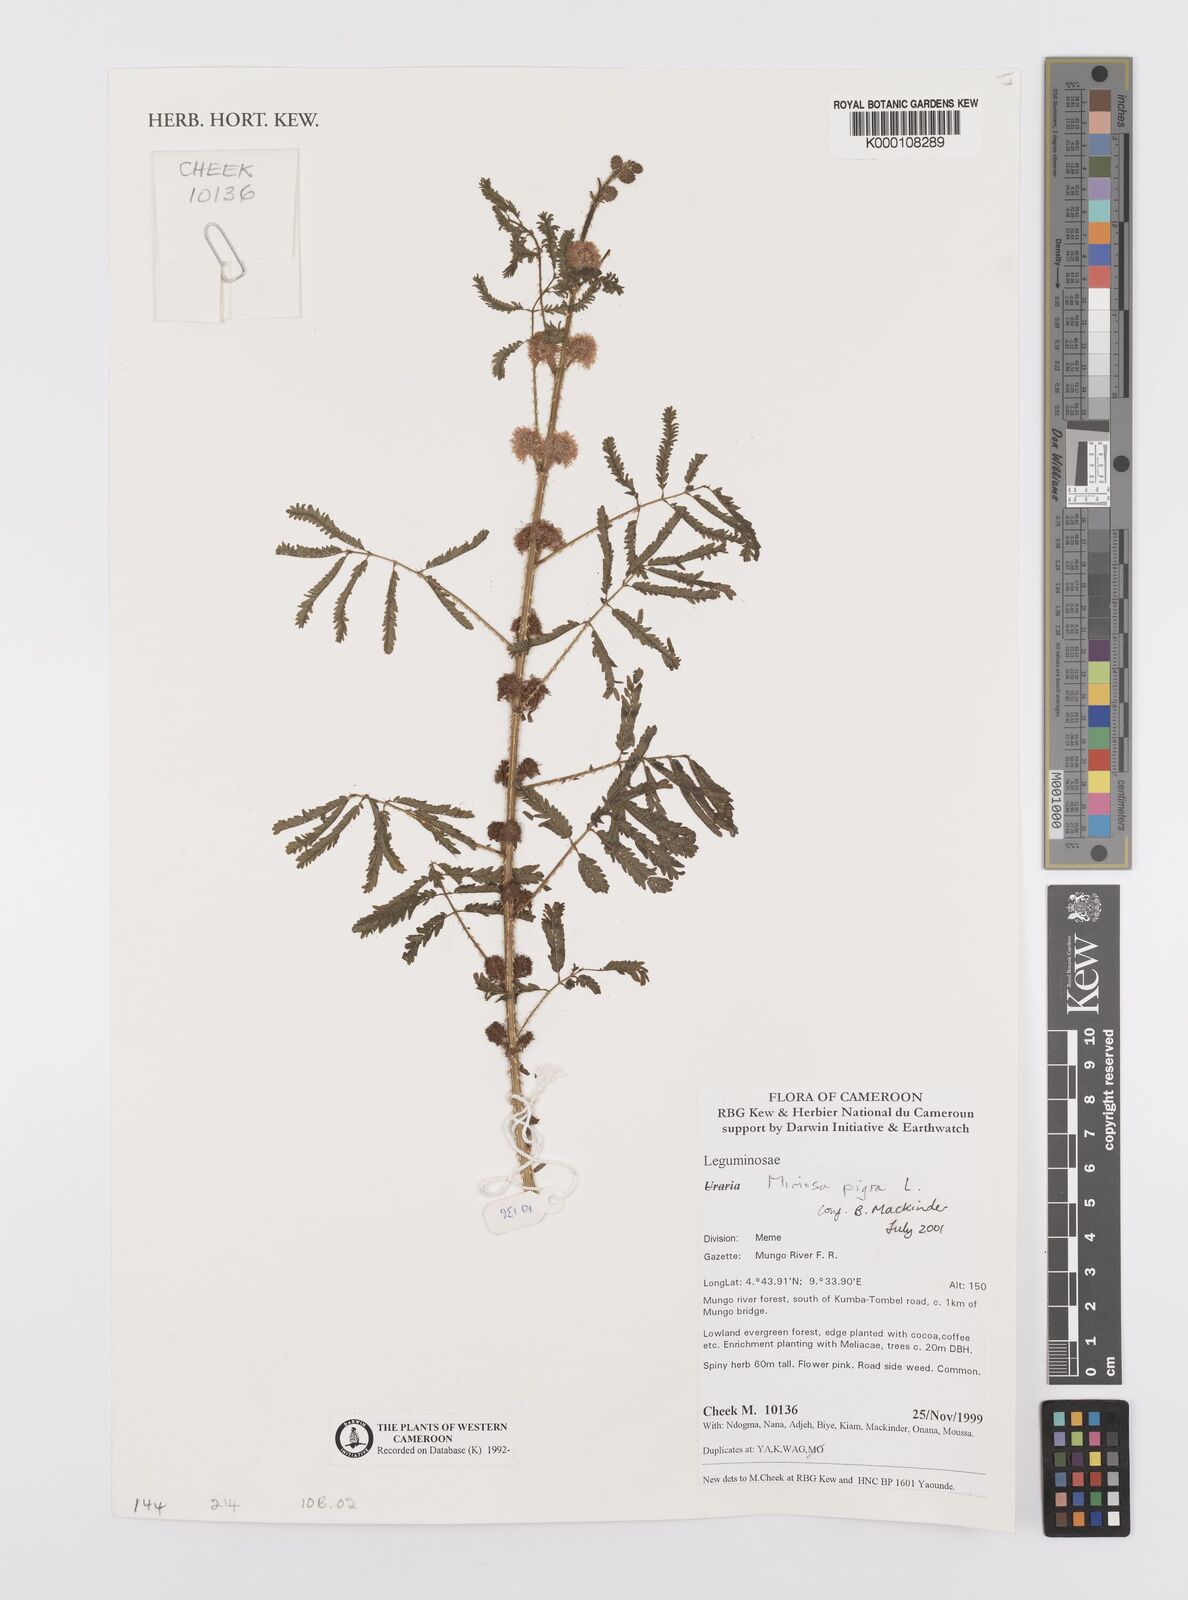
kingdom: Plantae
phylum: Tracheophyta
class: Magnoliopsida
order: Fabales
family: Fabaceae
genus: Mimosa
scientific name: Mimosa pigra
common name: Black mimosa
